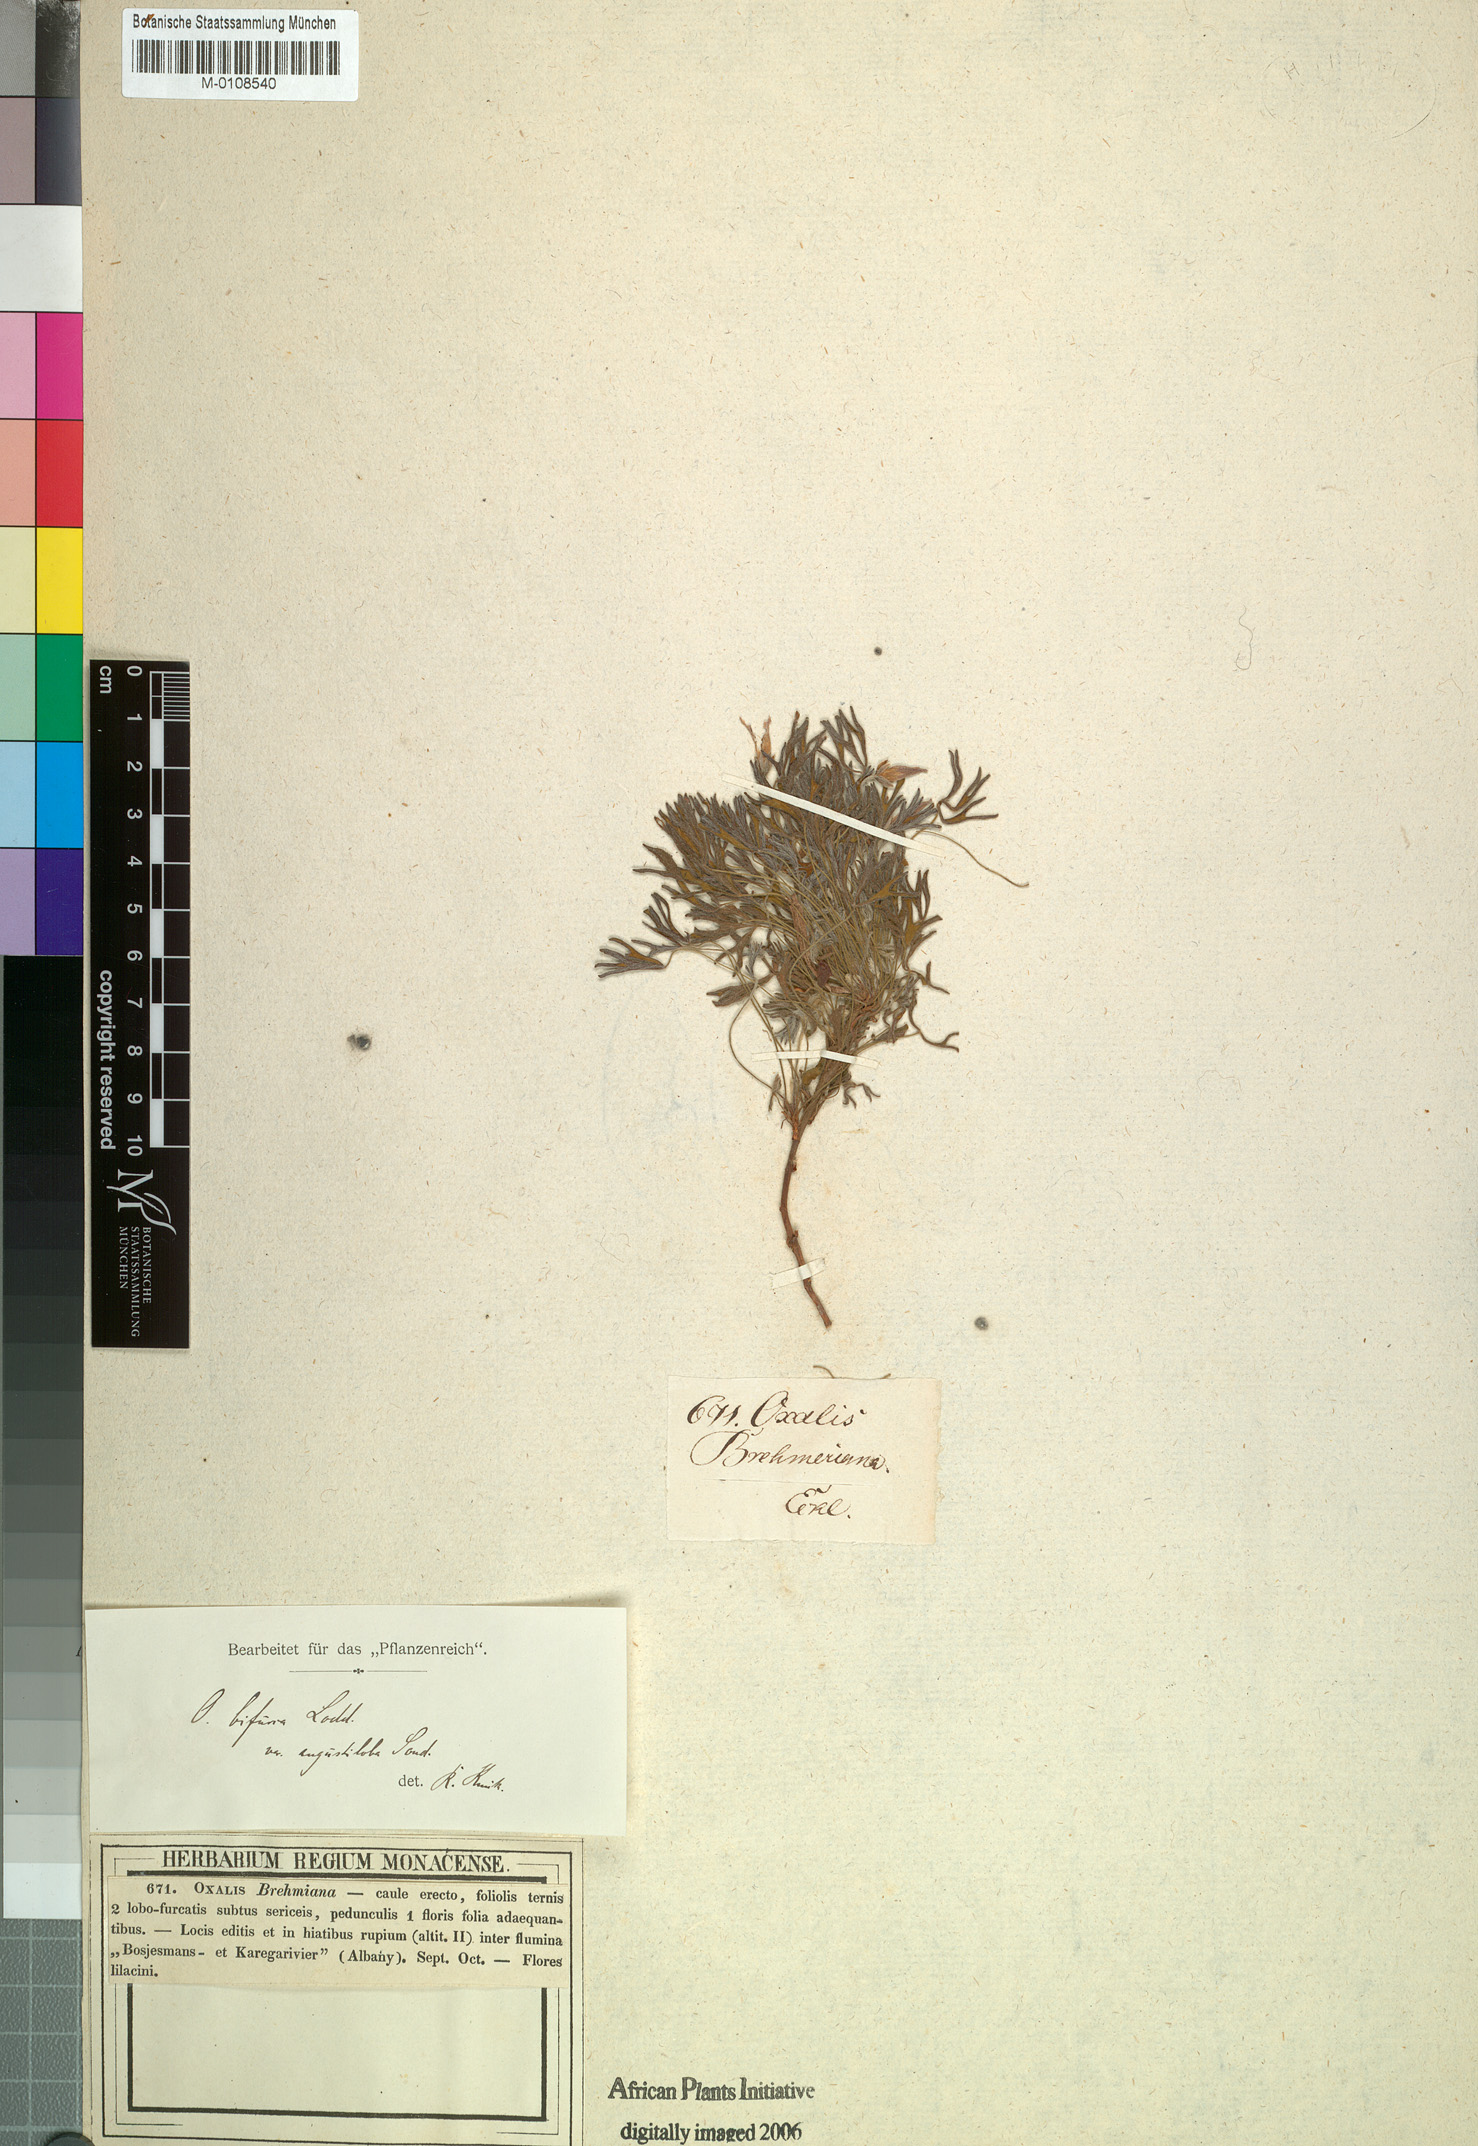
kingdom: Plantae
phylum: Tracheophyta
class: Magnoliopsida
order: Oxalidales
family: Oxalidaceae
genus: Oxalis
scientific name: Oxalis bifurca
